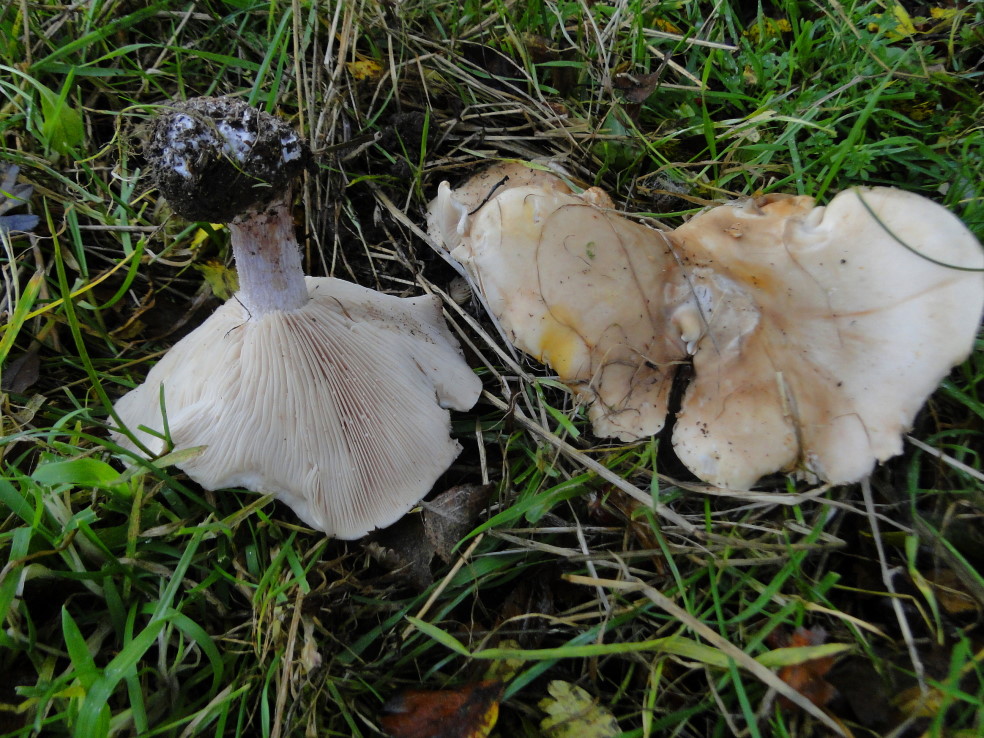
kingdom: Fungi
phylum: Basidiomycota
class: Agaricomycetes
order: Agaricales
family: Tricholomataceae
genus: Lepista
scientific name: Lepista personata
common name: bleg hekseringshat
